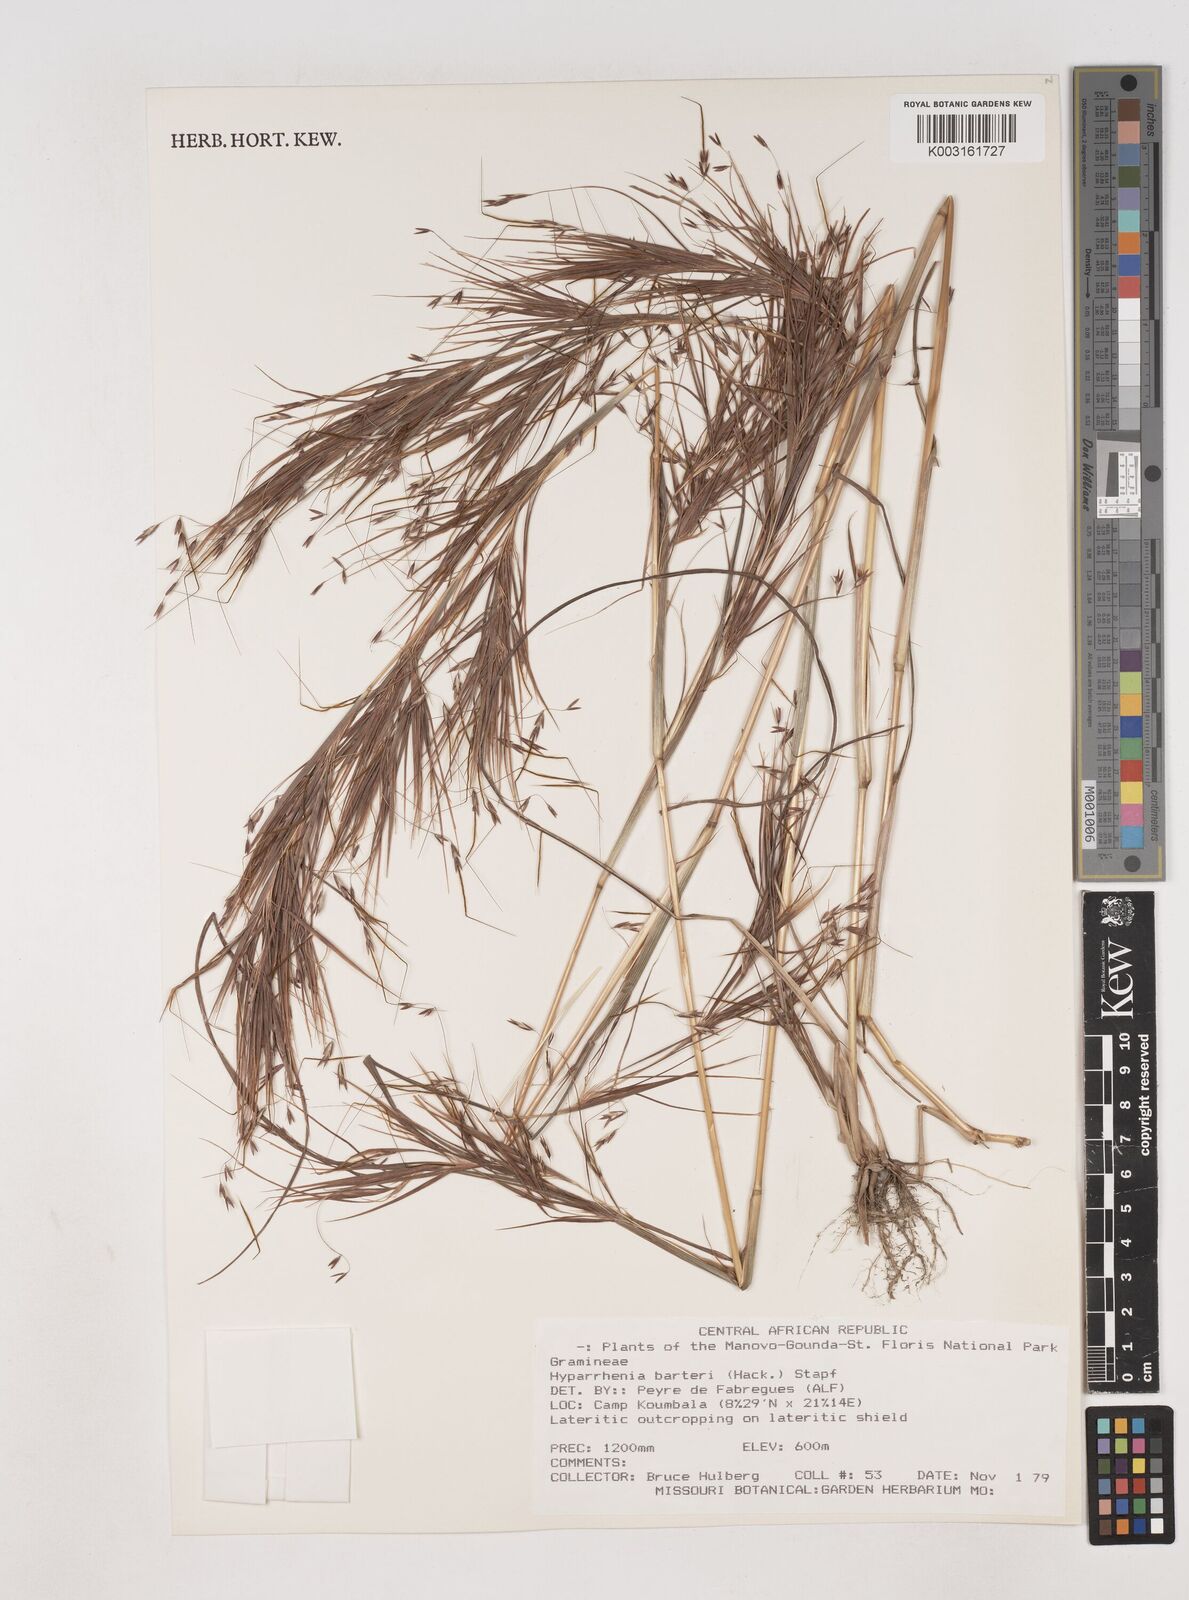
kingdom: Plantae
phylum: Tracheophyta
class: Liliopsida
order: Poales
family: Poaceae
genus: Hyparrhenia
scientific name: Hyparrhenia barteri
